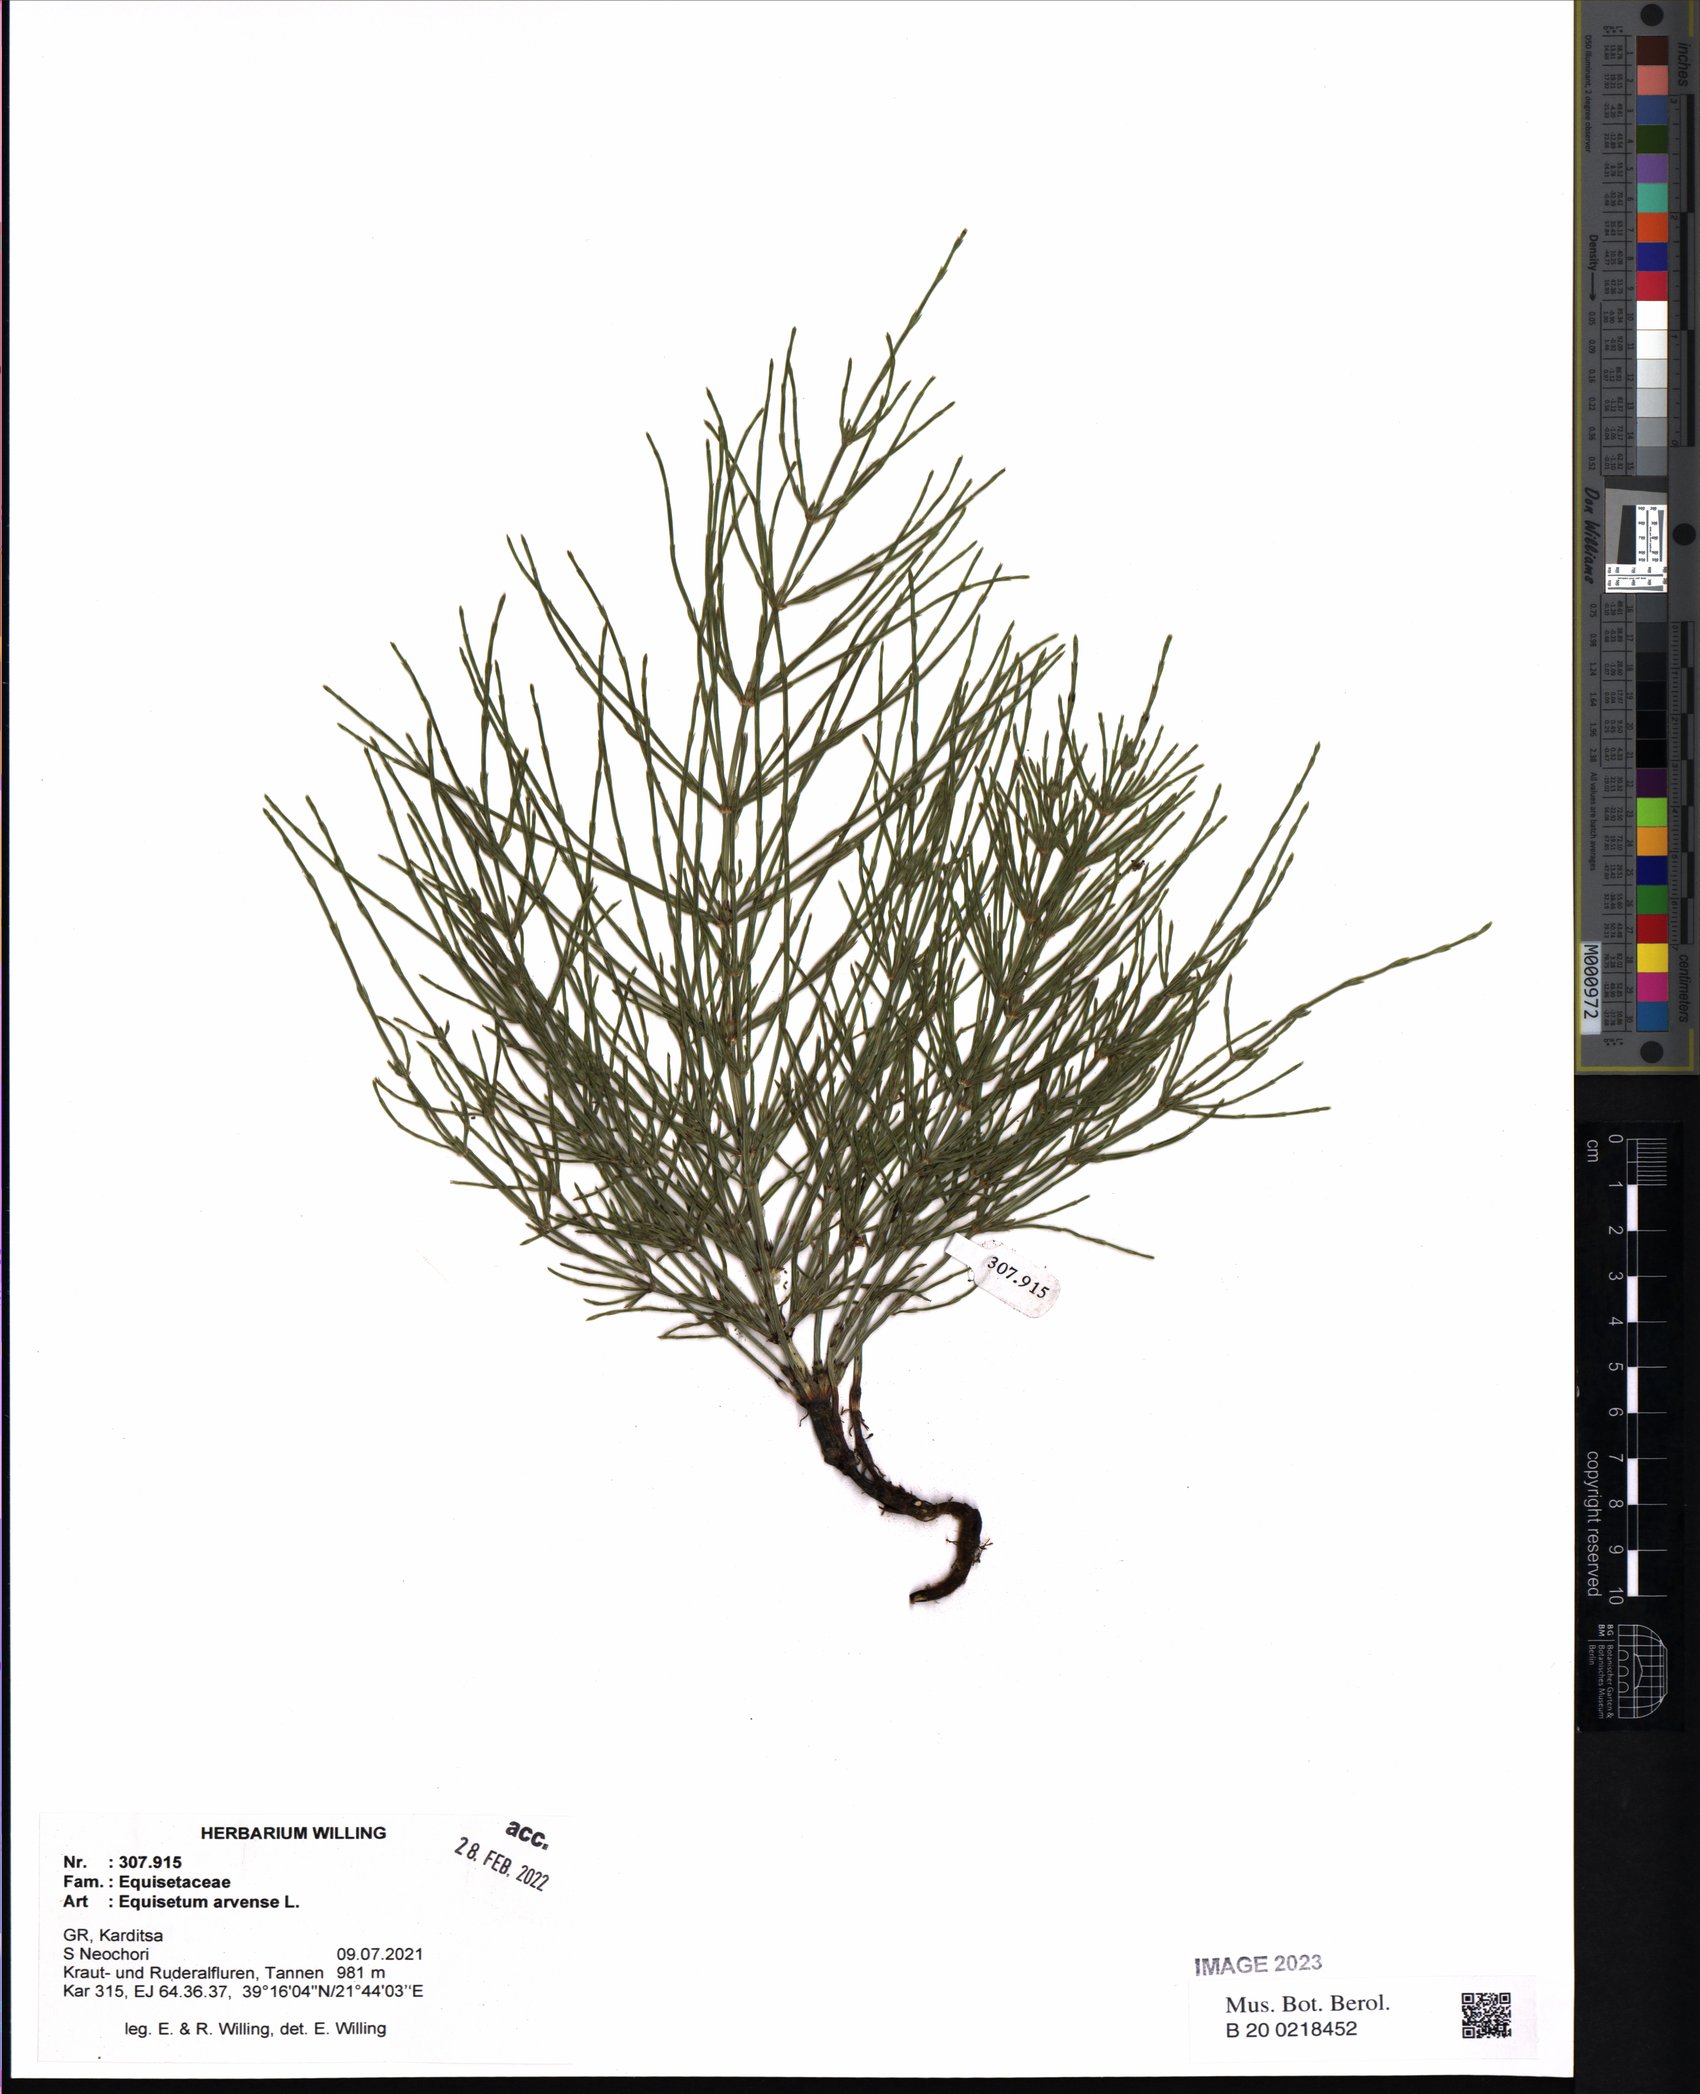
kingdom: Plantae
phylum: Tracheophyta
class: Polypodiopsida
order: Equisetales
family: Equisetaceae
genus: Equisetum
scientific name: Equisetum arvense
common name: Field horsetail
